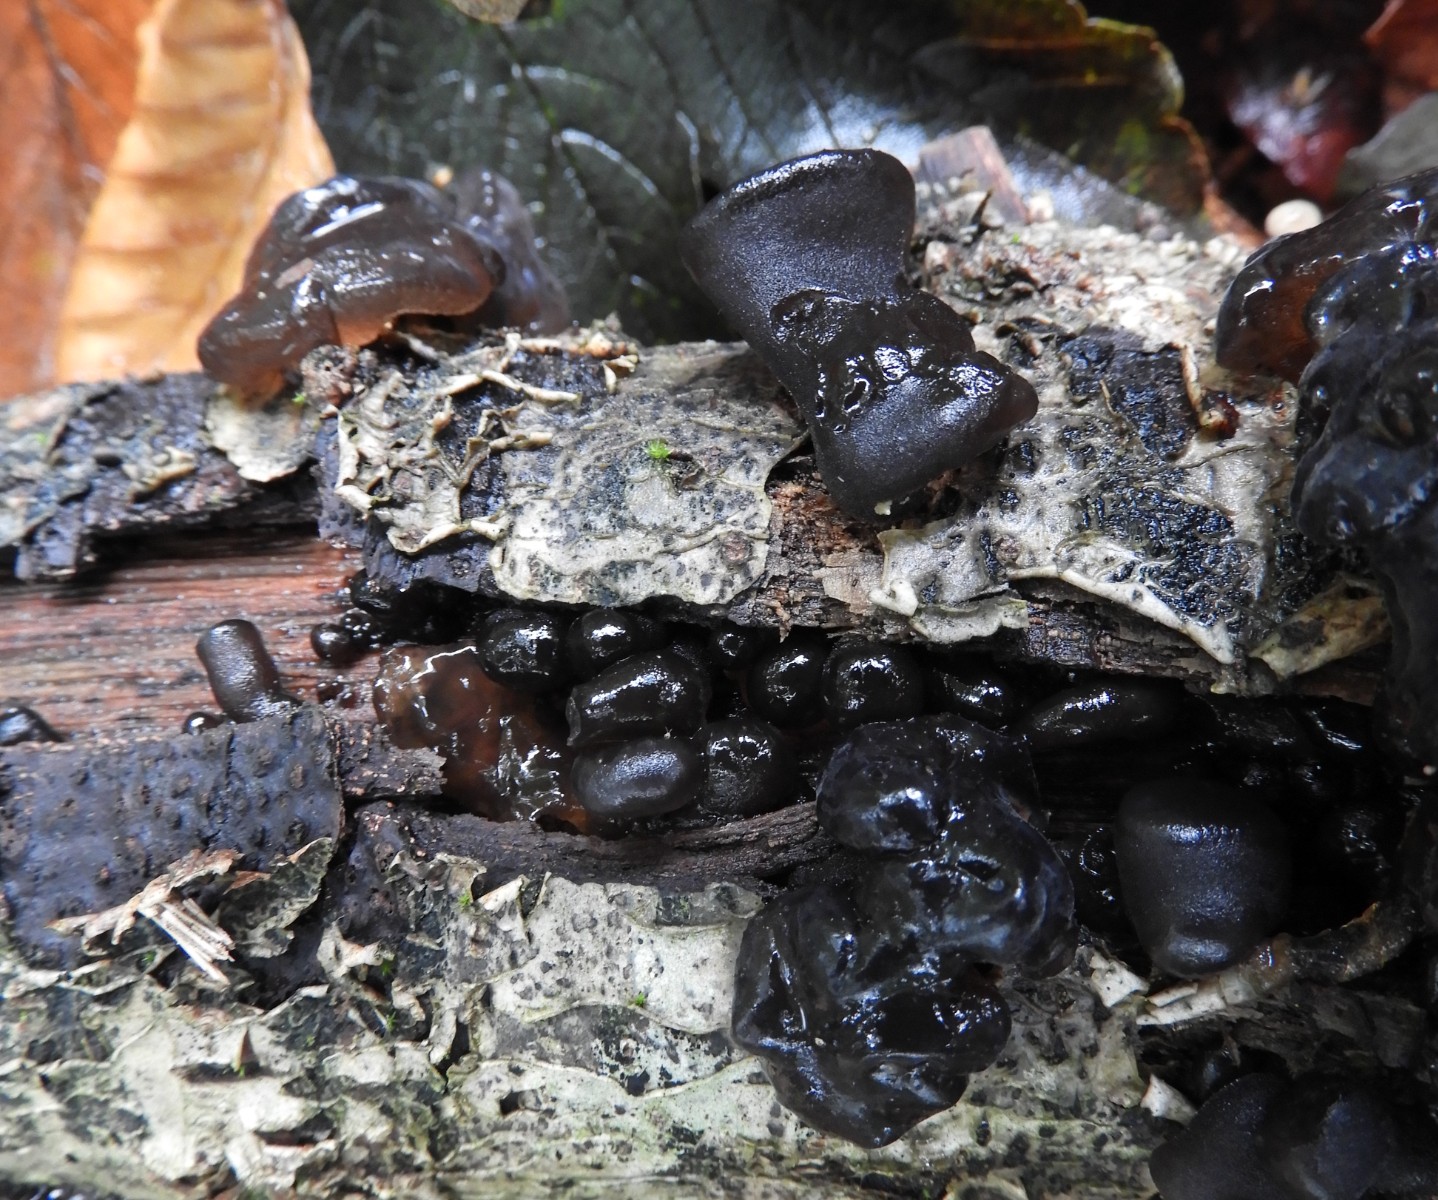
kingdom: Fungi
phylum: Basidiomycota
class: Agaricomycetes
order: Auriculariales
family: Auriculariaceae
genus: Exidia
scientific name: Exidia glandulosa
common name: ege-bævretop
